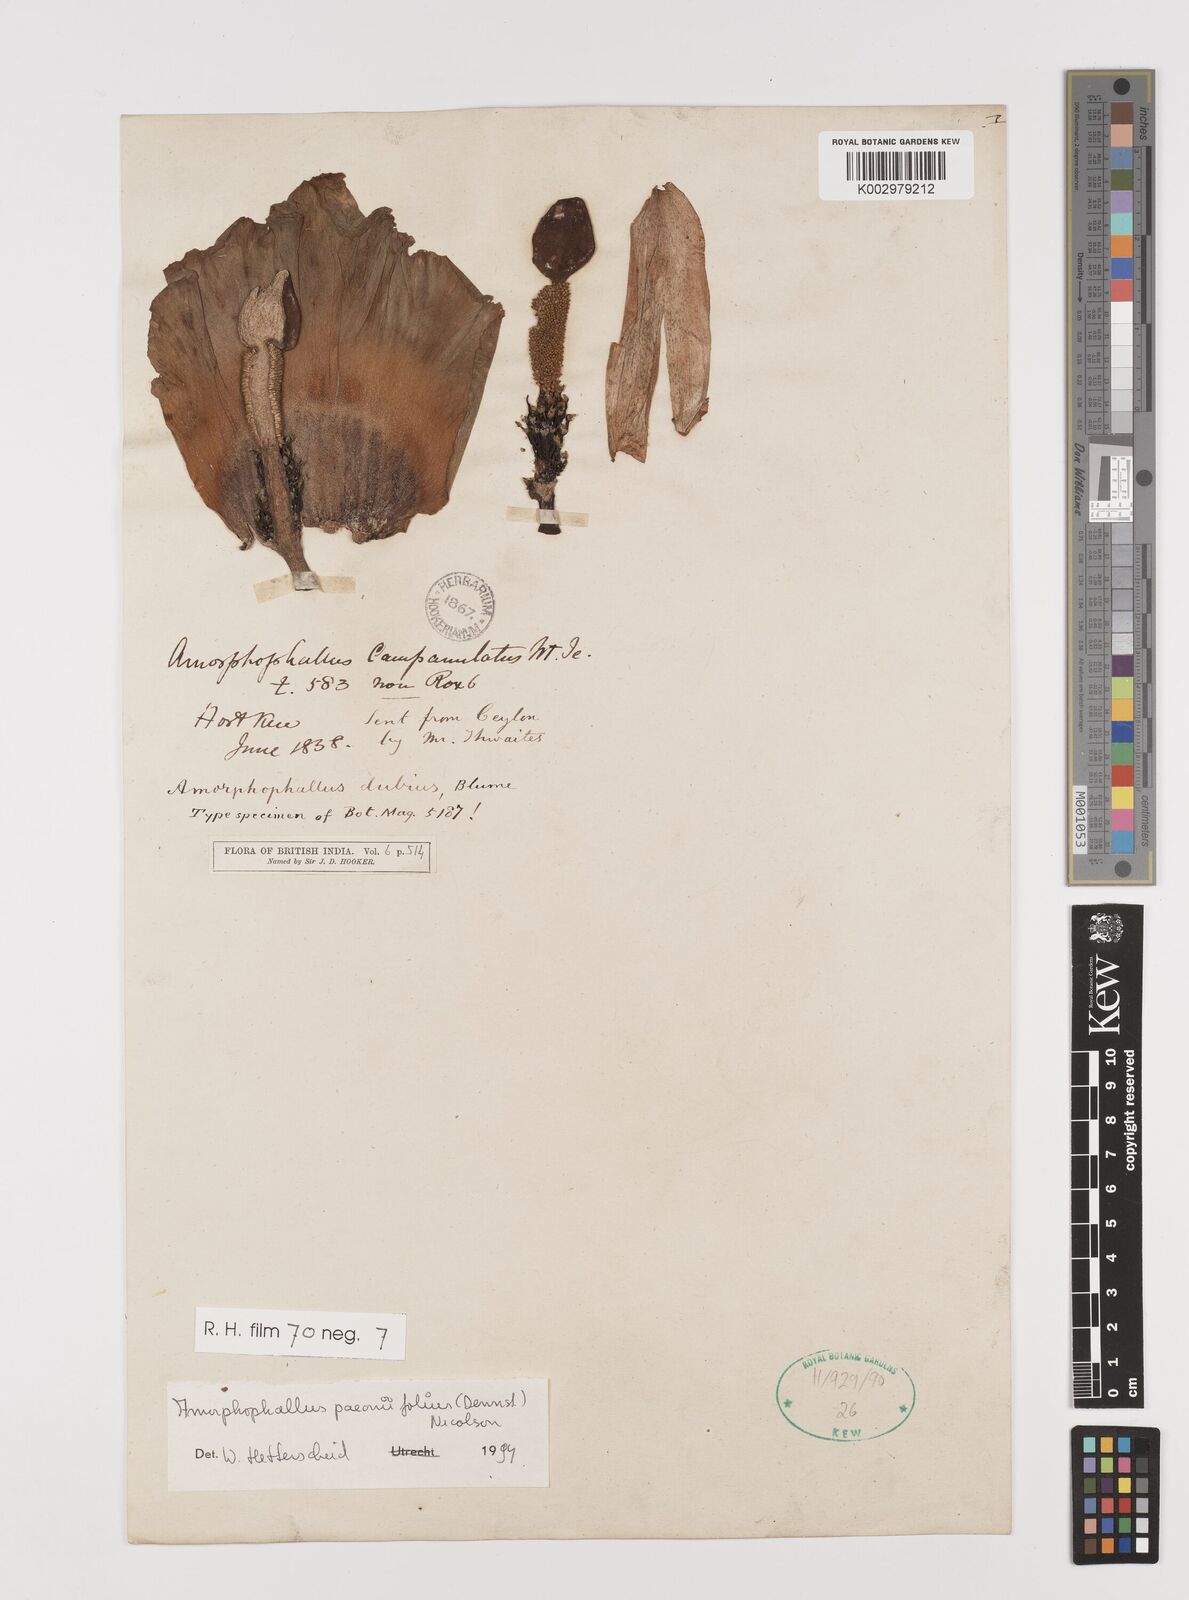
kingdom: Plantae
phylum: Tracheophyta
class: Liliopsida
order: Alismatales
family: Araceae
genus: Amorphophallus
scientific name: Amorphophallus paeoniifolius
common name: Telinga-potato
